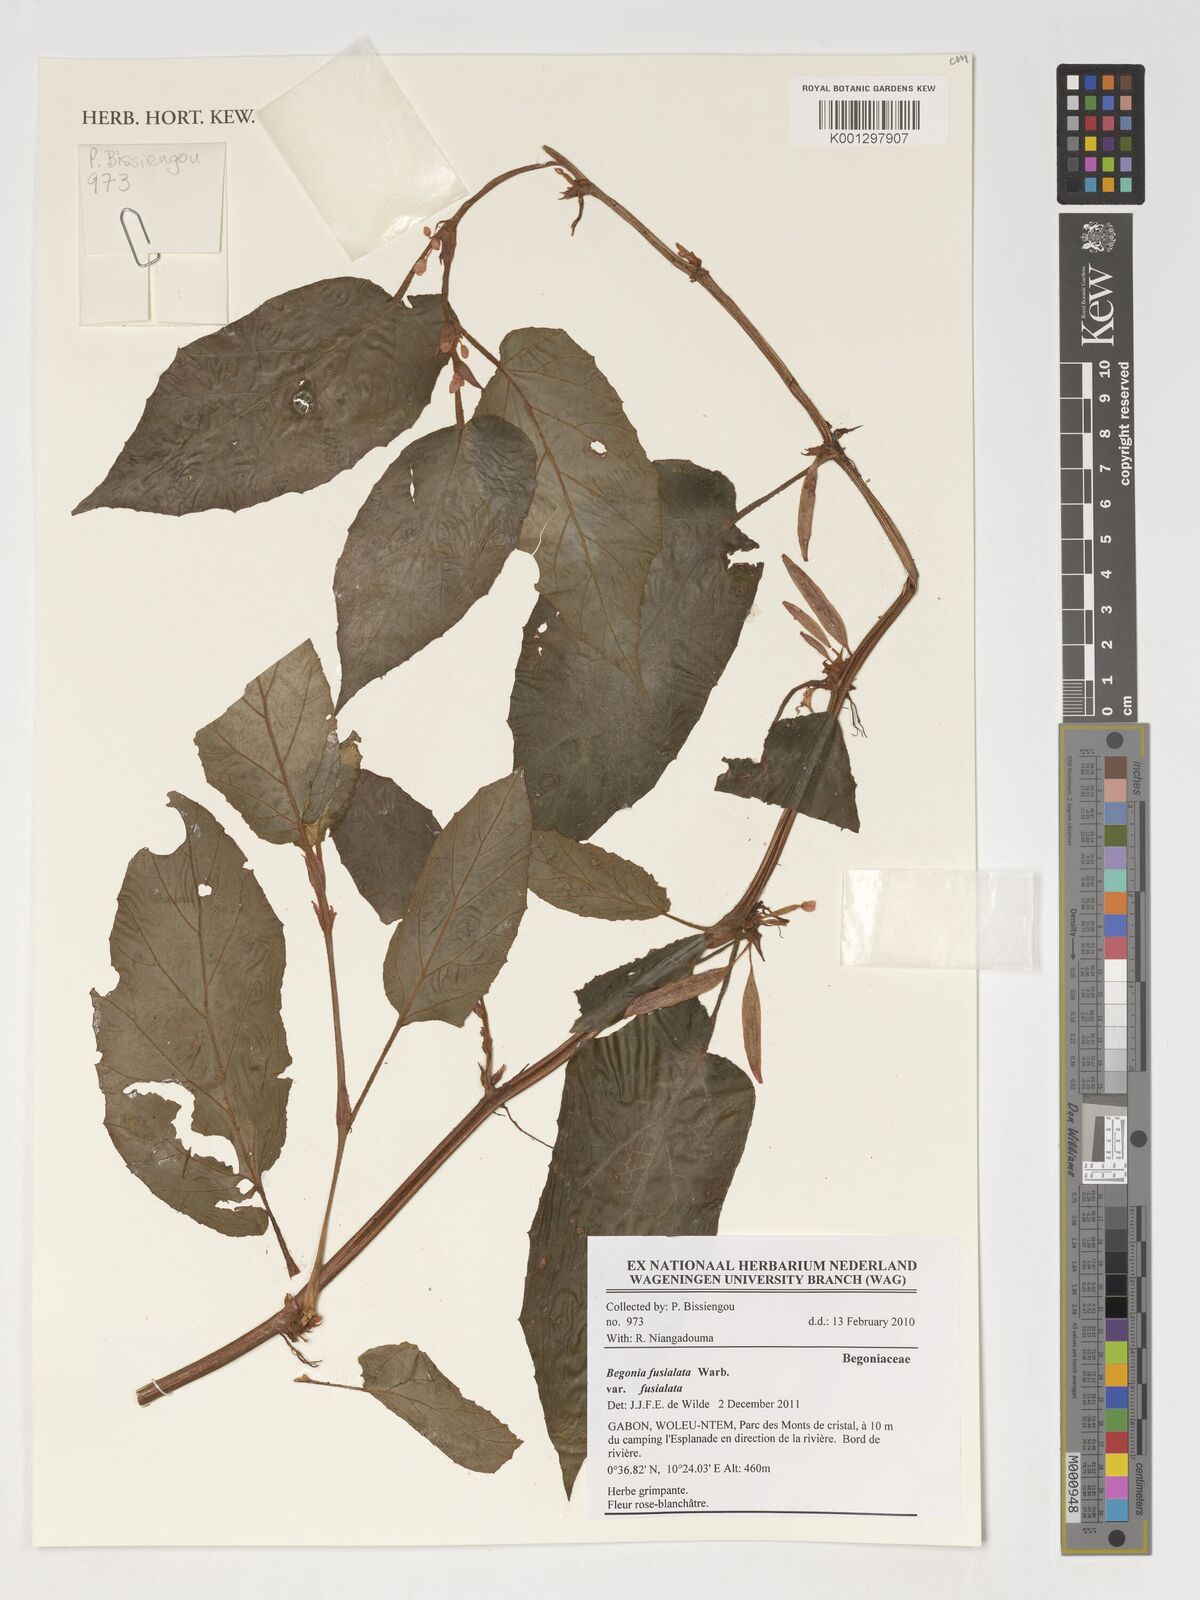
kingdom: Plantae
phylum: Tracheophyta
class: Magnoliopsida
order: Cucurbitales
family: Begoniaceae
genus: Begonia
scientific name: Begonia fusialata
